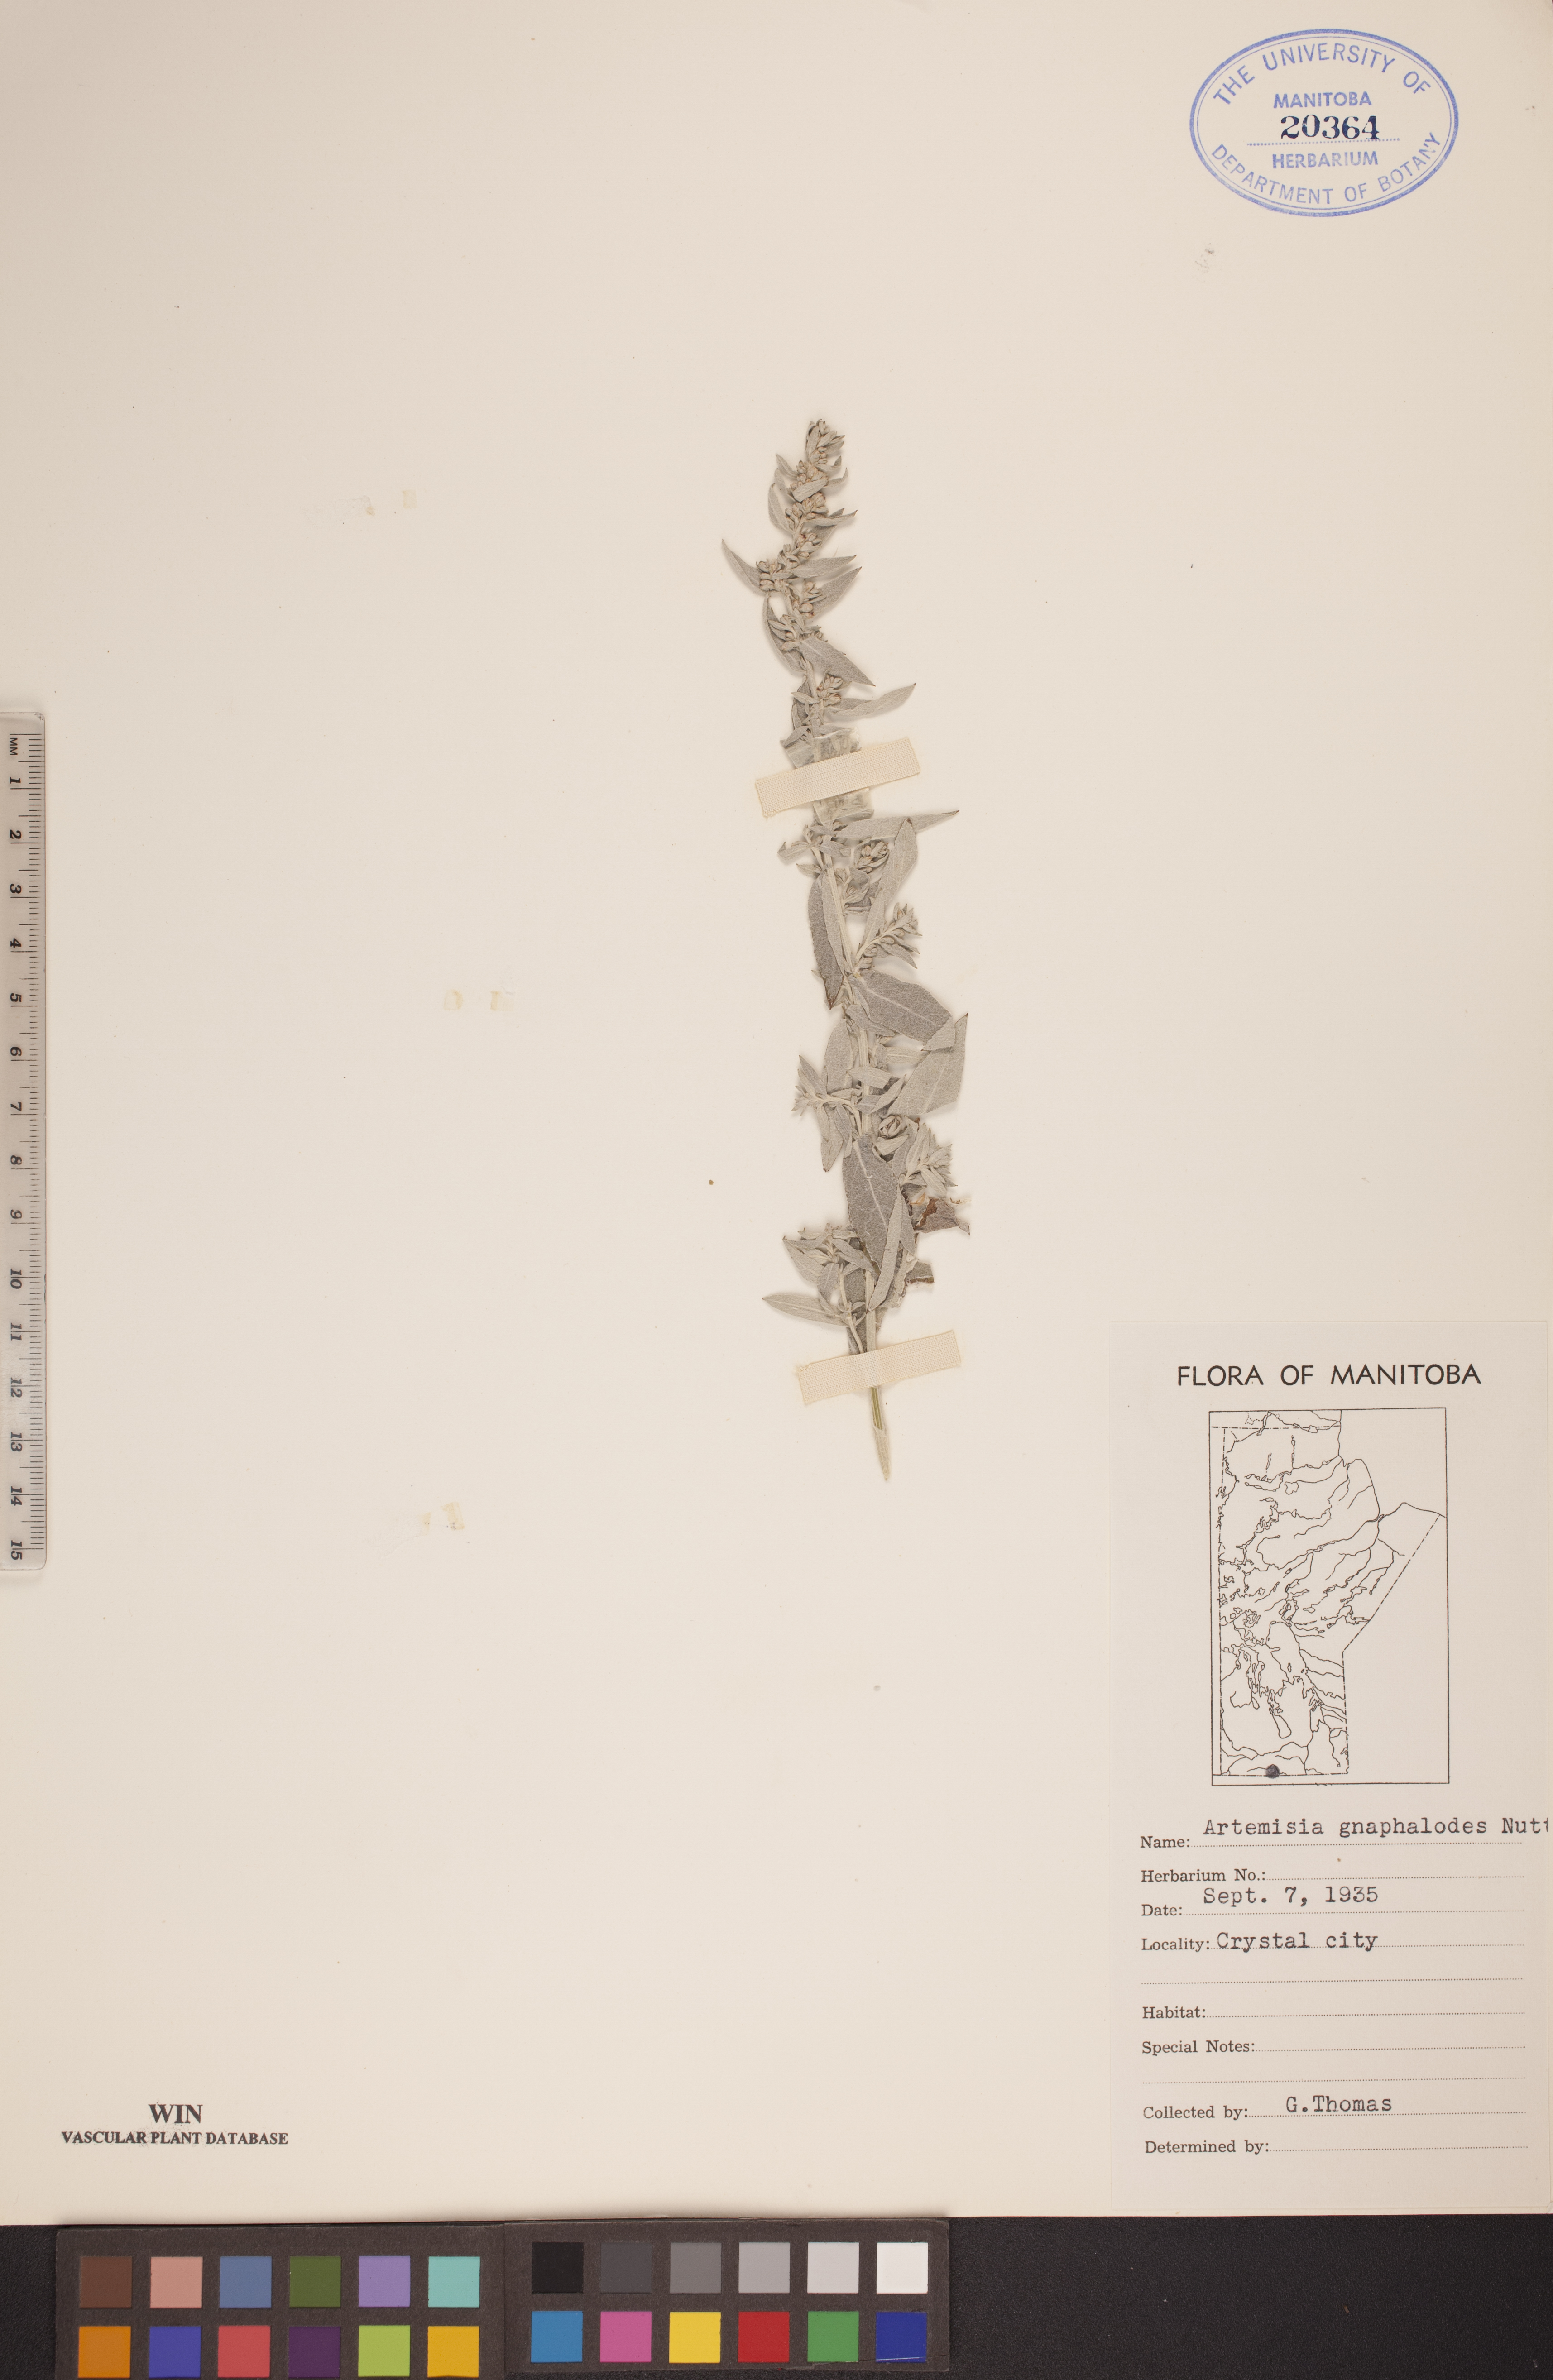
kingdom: Plantae
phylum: Tracheophyta
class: Magnoliopsida
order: Asterales
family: Asteraceae
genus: Artemisia
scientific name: Artemisia ludoviciana
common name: Western mugwort
